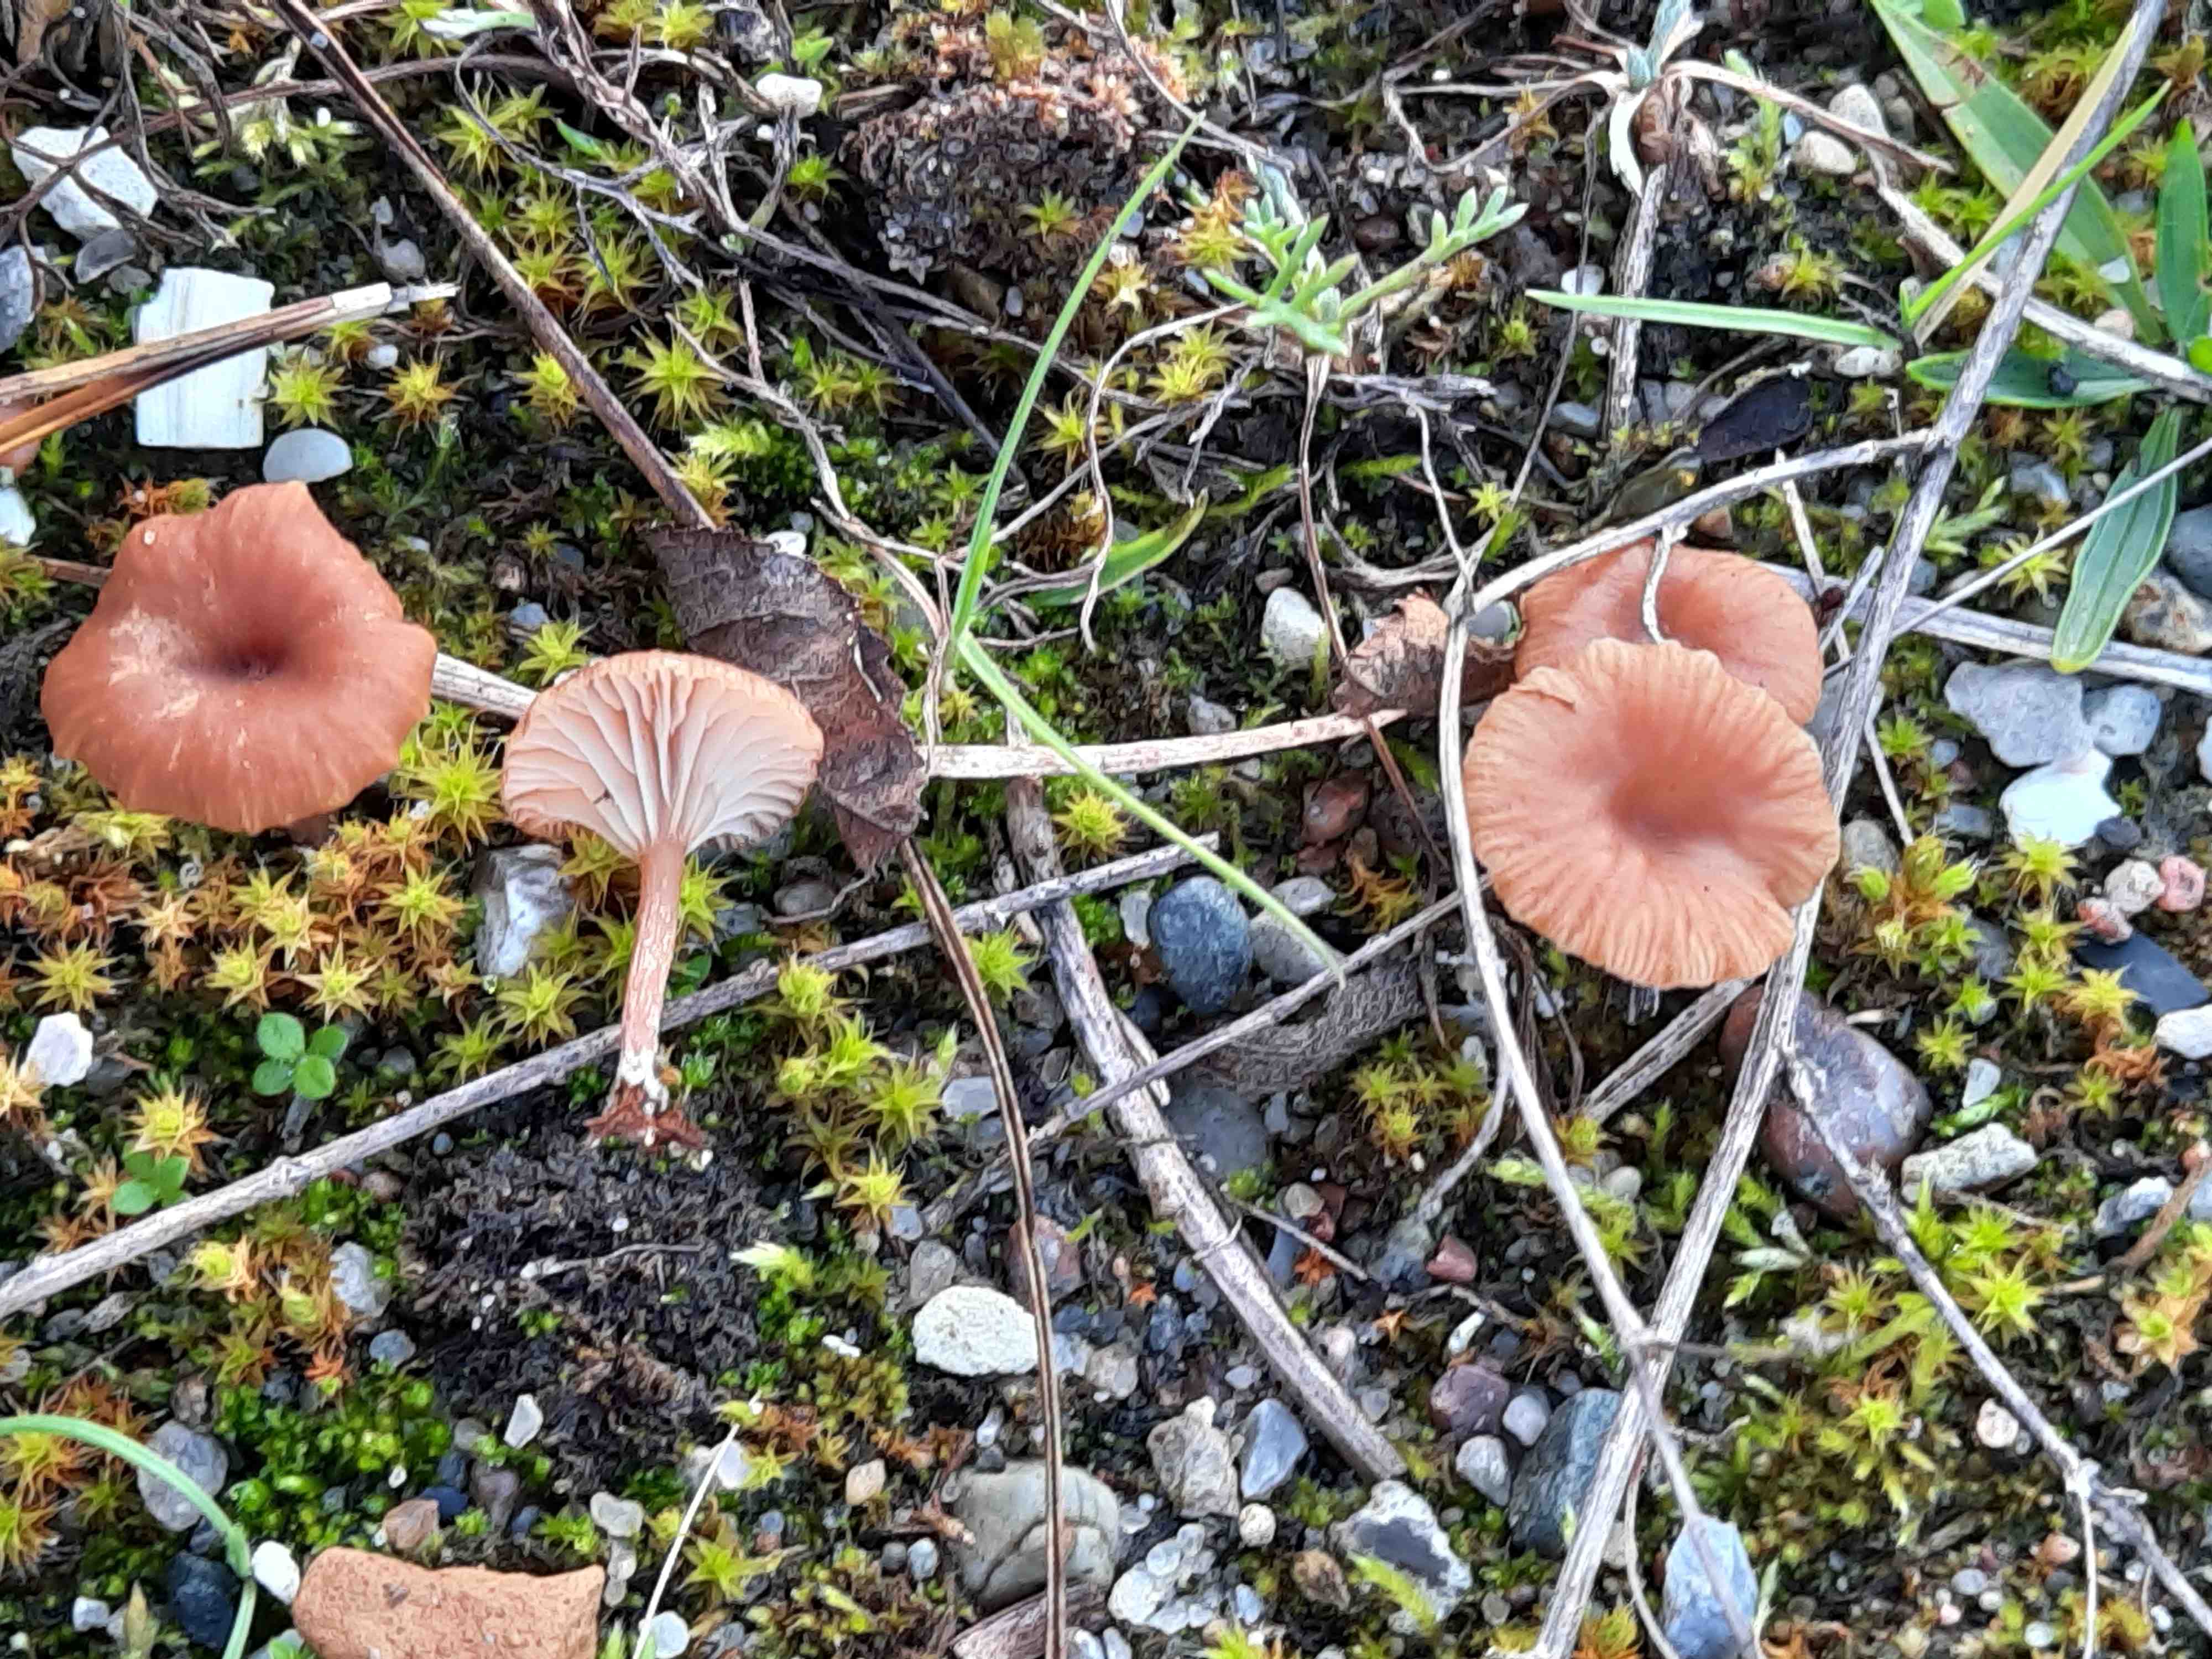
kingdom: Fungi
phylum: Basidiomycota
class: Agaricomycetes
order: Agaricales
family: Tricholomataceae
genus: Omphalina
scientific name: Omphalina pyxidata
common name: rødbrun navlehat
